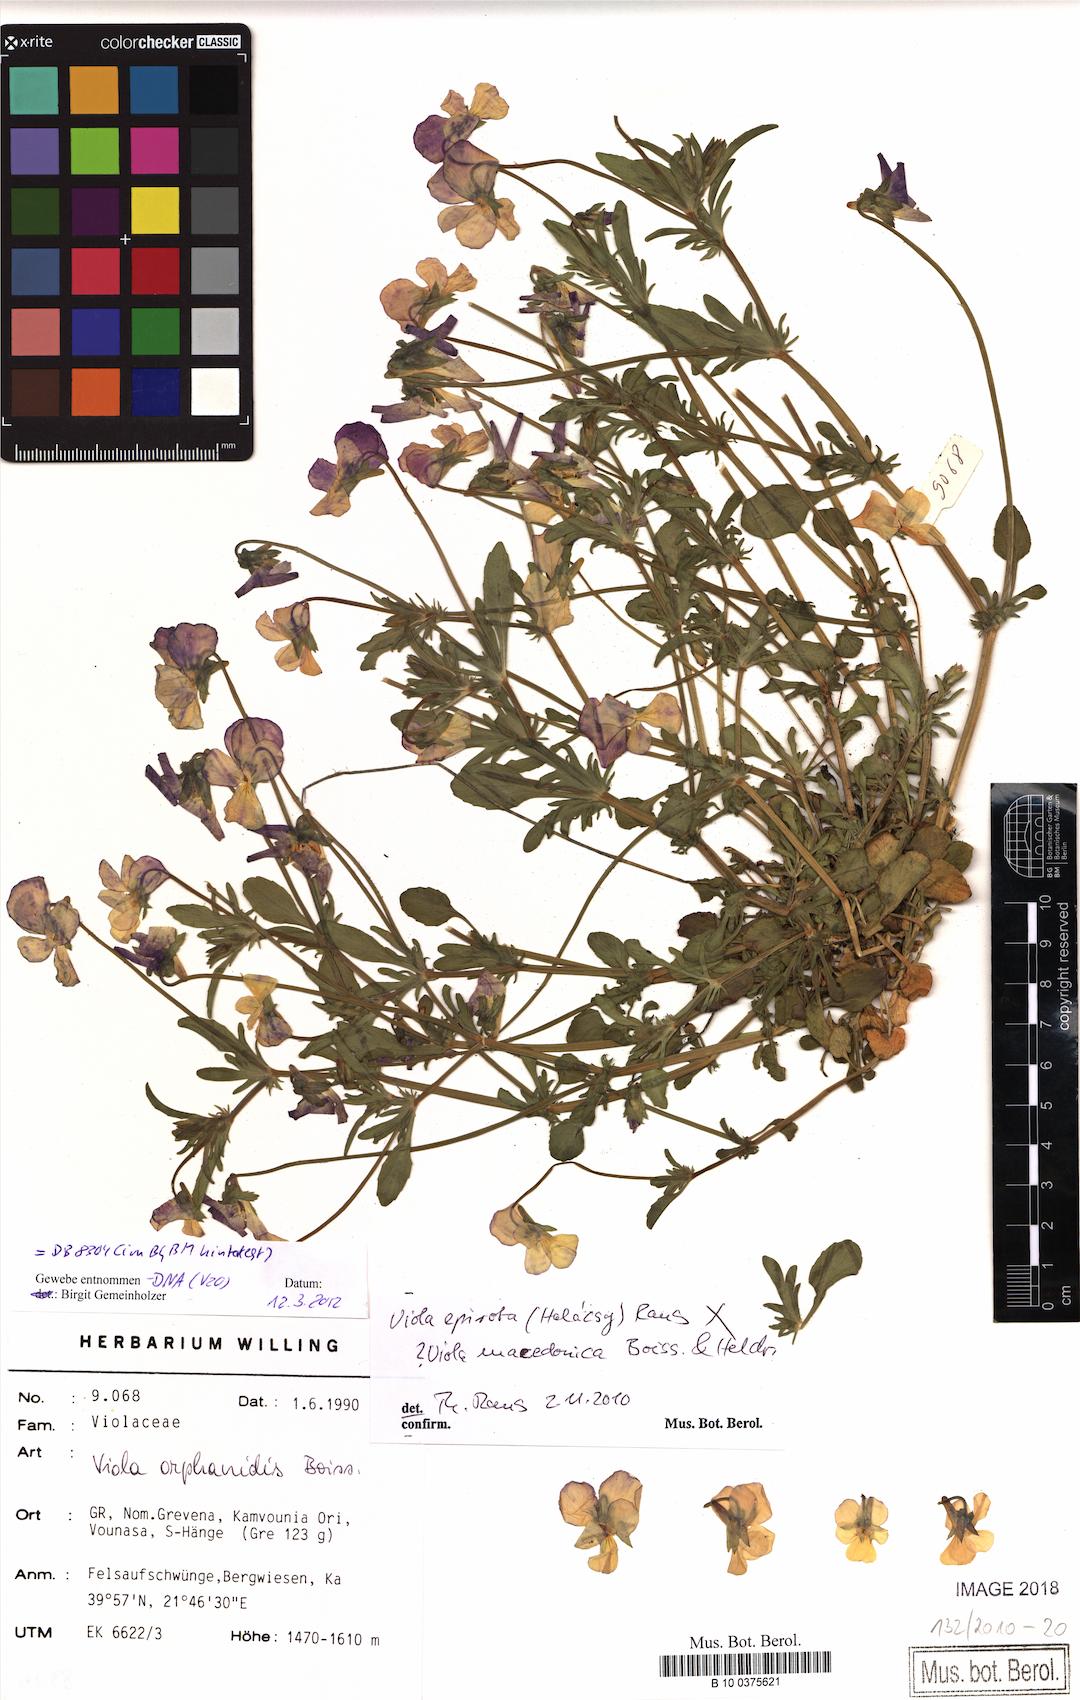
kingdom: Plantae
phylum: Tracheophyta
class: Magnoliopsida
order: Malpighiales
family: Violaceae
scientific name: Violaceae
